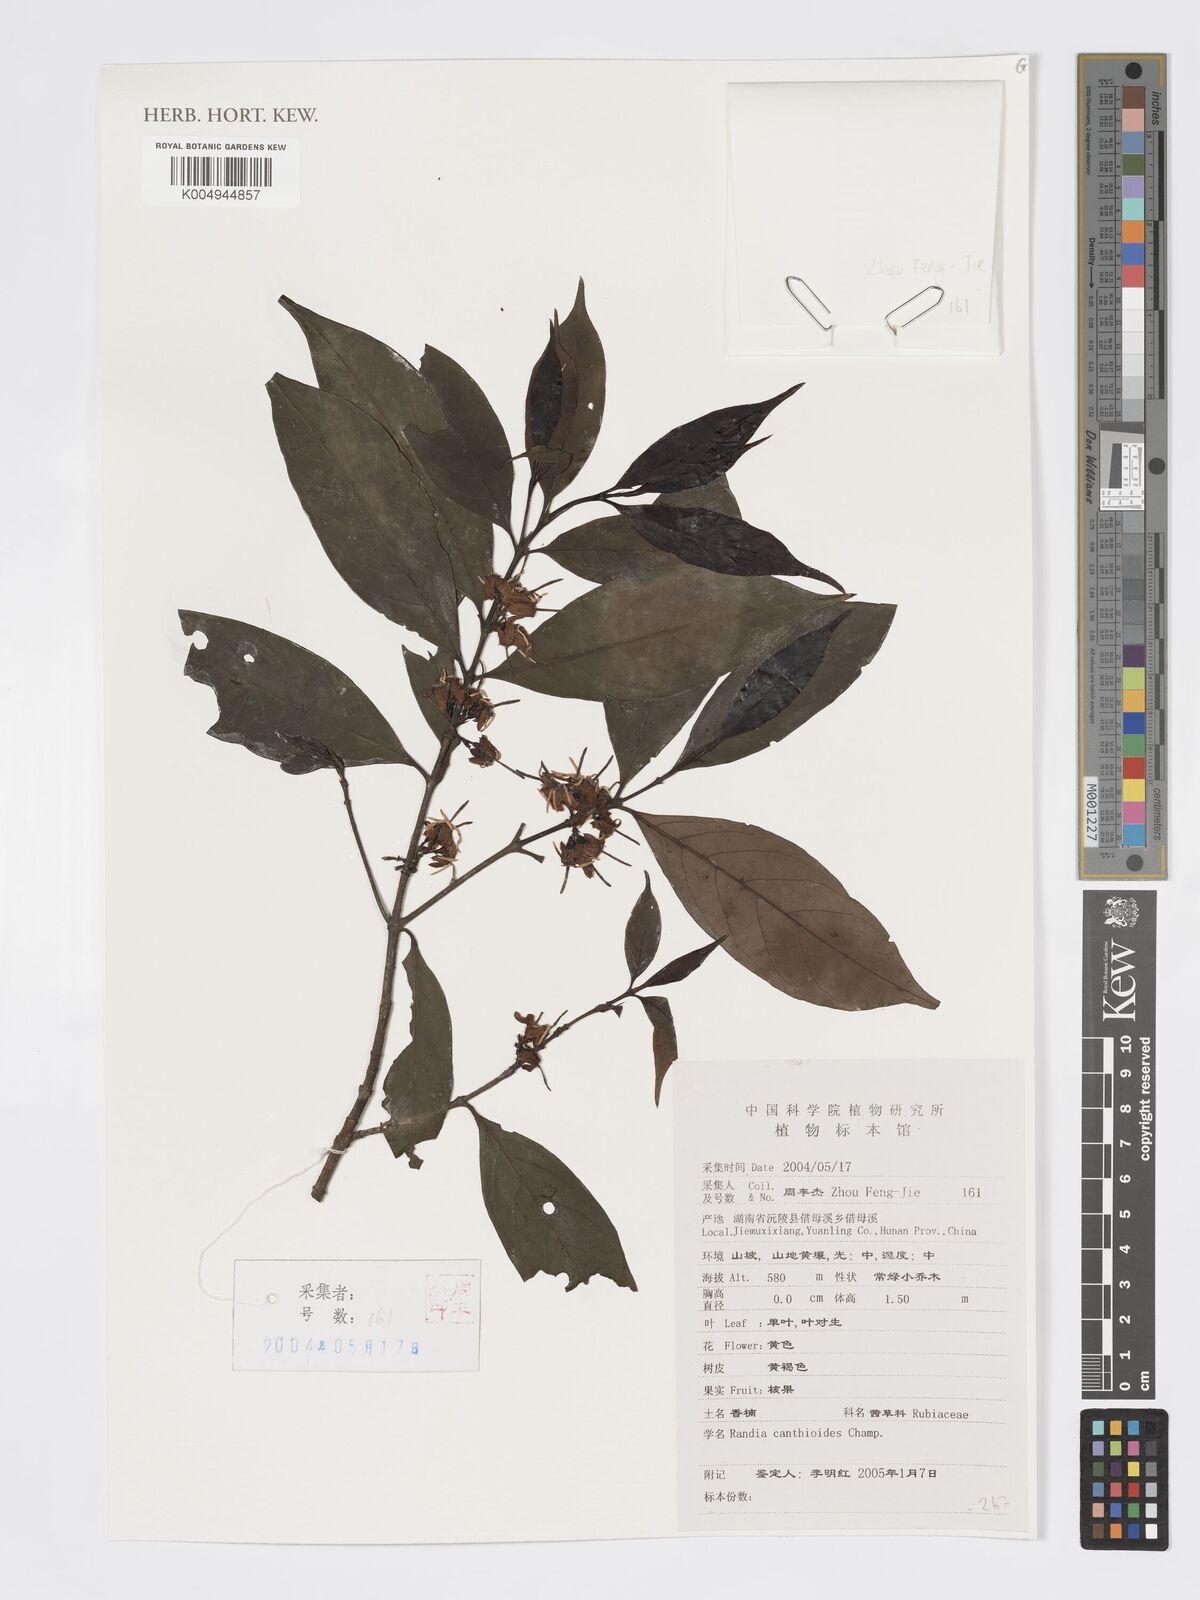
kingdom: Plantae
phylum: Tracheophyta
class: Magnoliopsida
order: Gentianales
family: Rubiaceae
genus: Aidia
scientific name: Aidia canthioides
